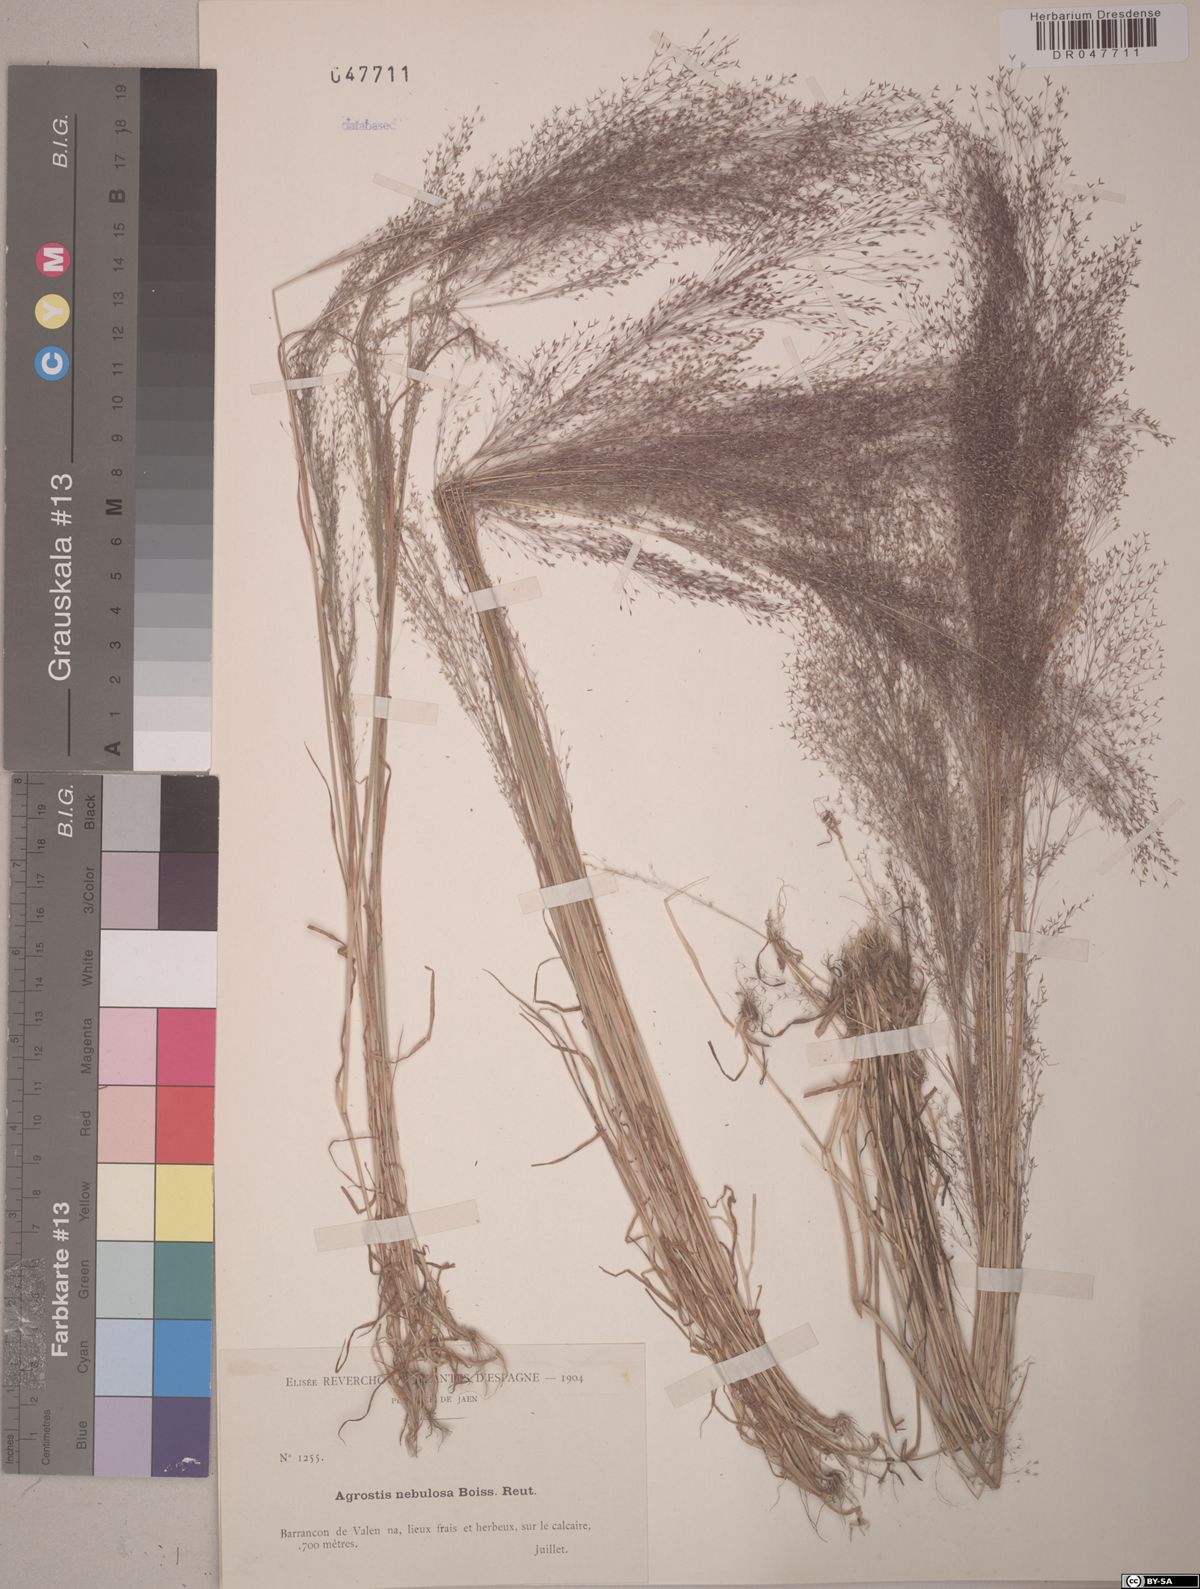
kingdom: Plantae
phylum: Tracheophyta
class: Liliopsida
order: Poales
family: Poaceae
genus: Agrostis
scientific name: Agrostis nebulosa
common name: Cloud grass
